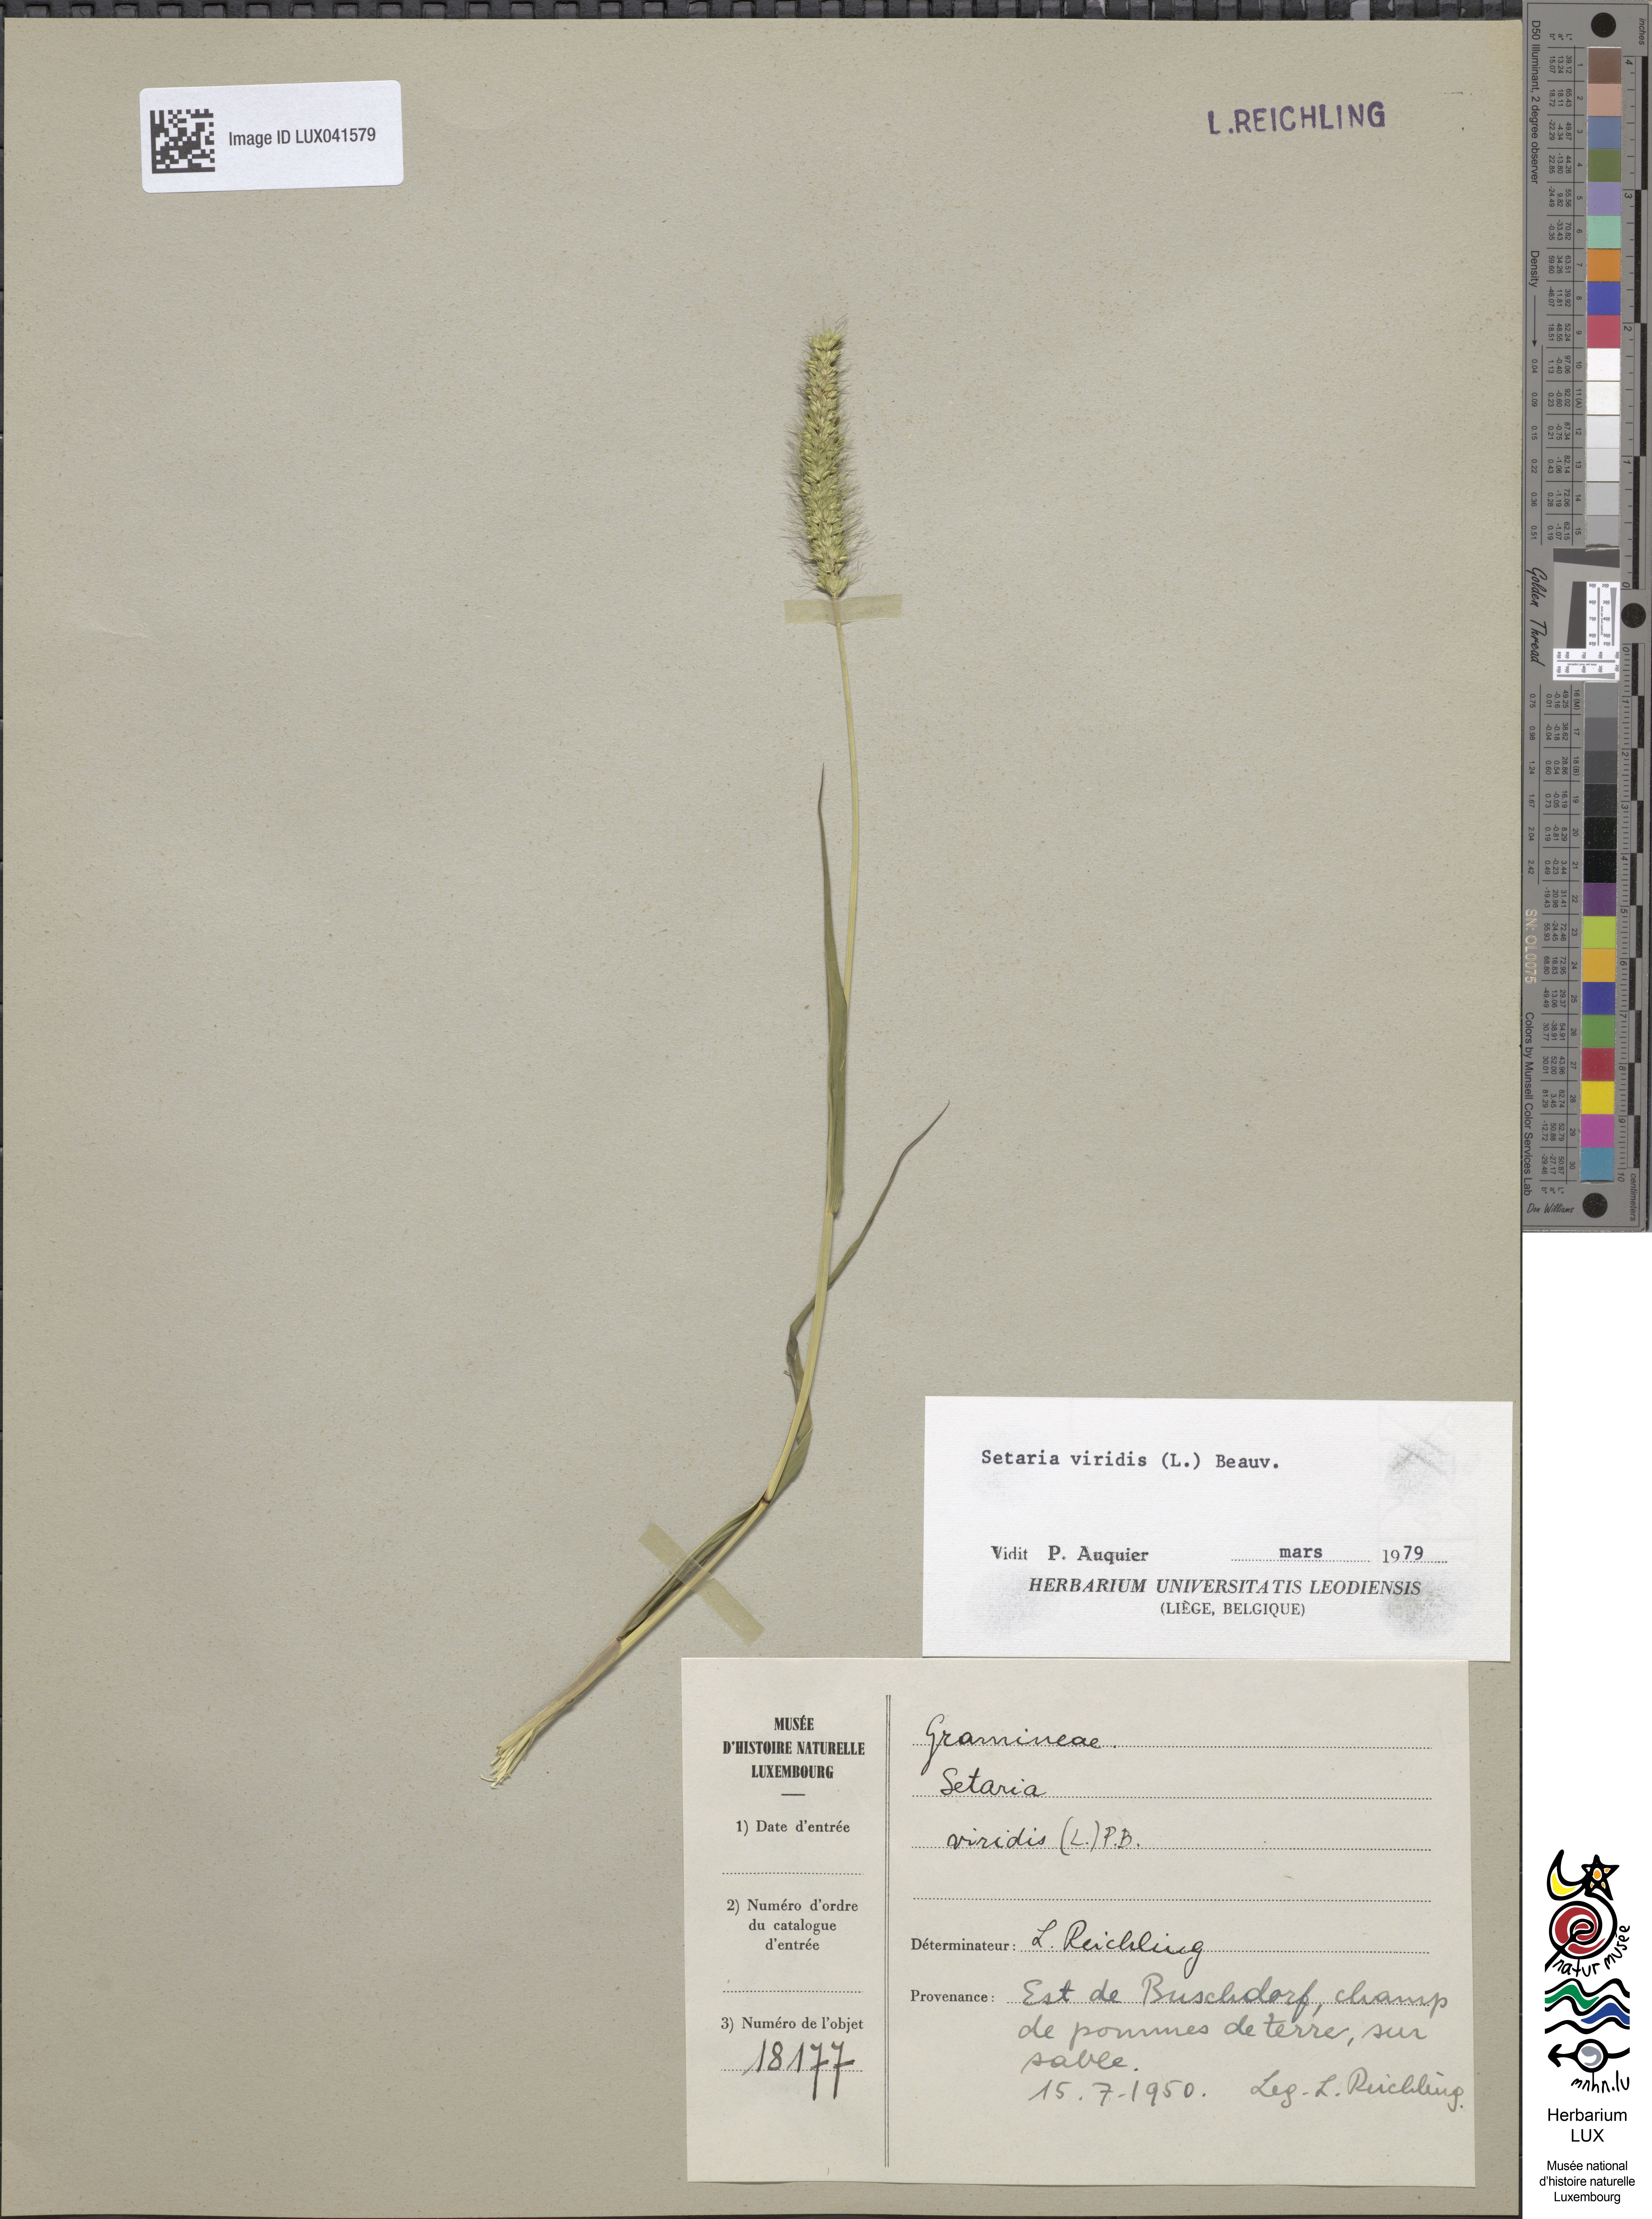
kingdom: Plantae
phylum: Tracheophyta
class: Liliopsida
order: Poales
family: Poaceae
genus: Setaria
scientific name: Setaria viridis
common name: Green bristlegrass
